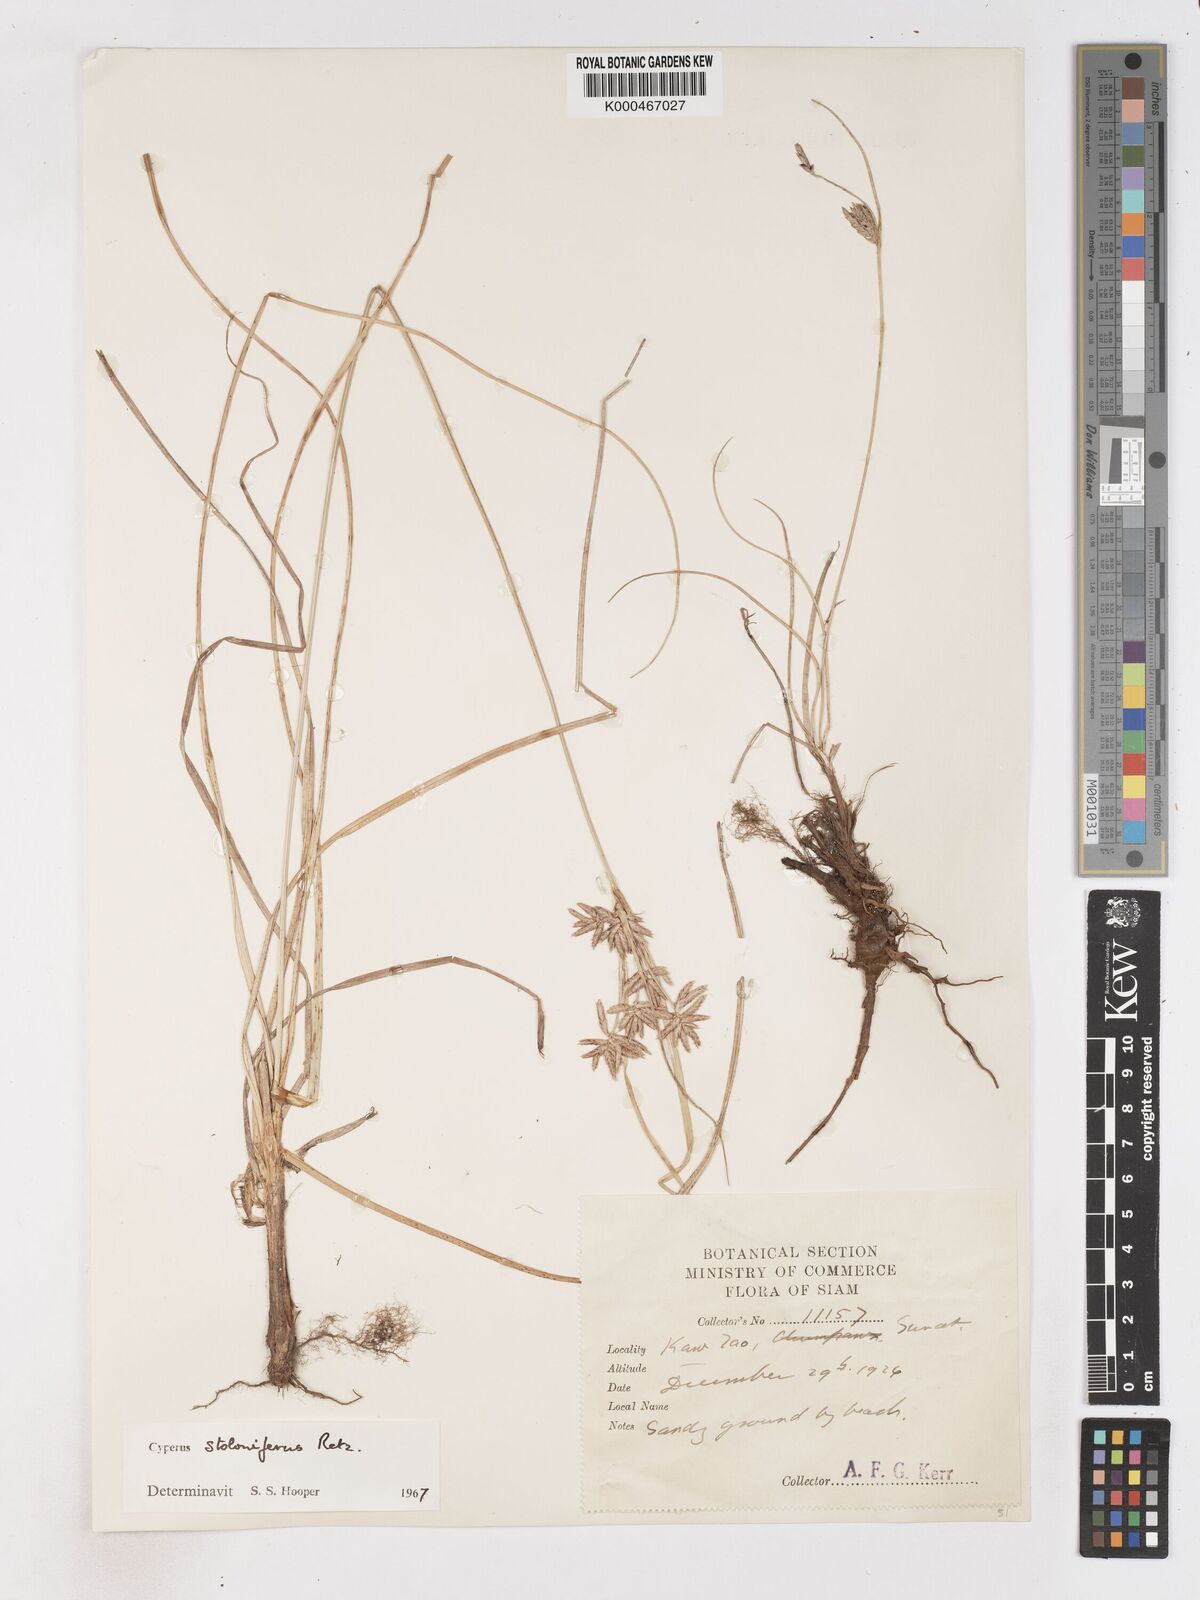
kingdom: Plantae
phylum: Tracheophyta
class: Liliopsida
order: Poales
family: Cyperaceae
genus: Cyperus
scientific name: Cyperus
